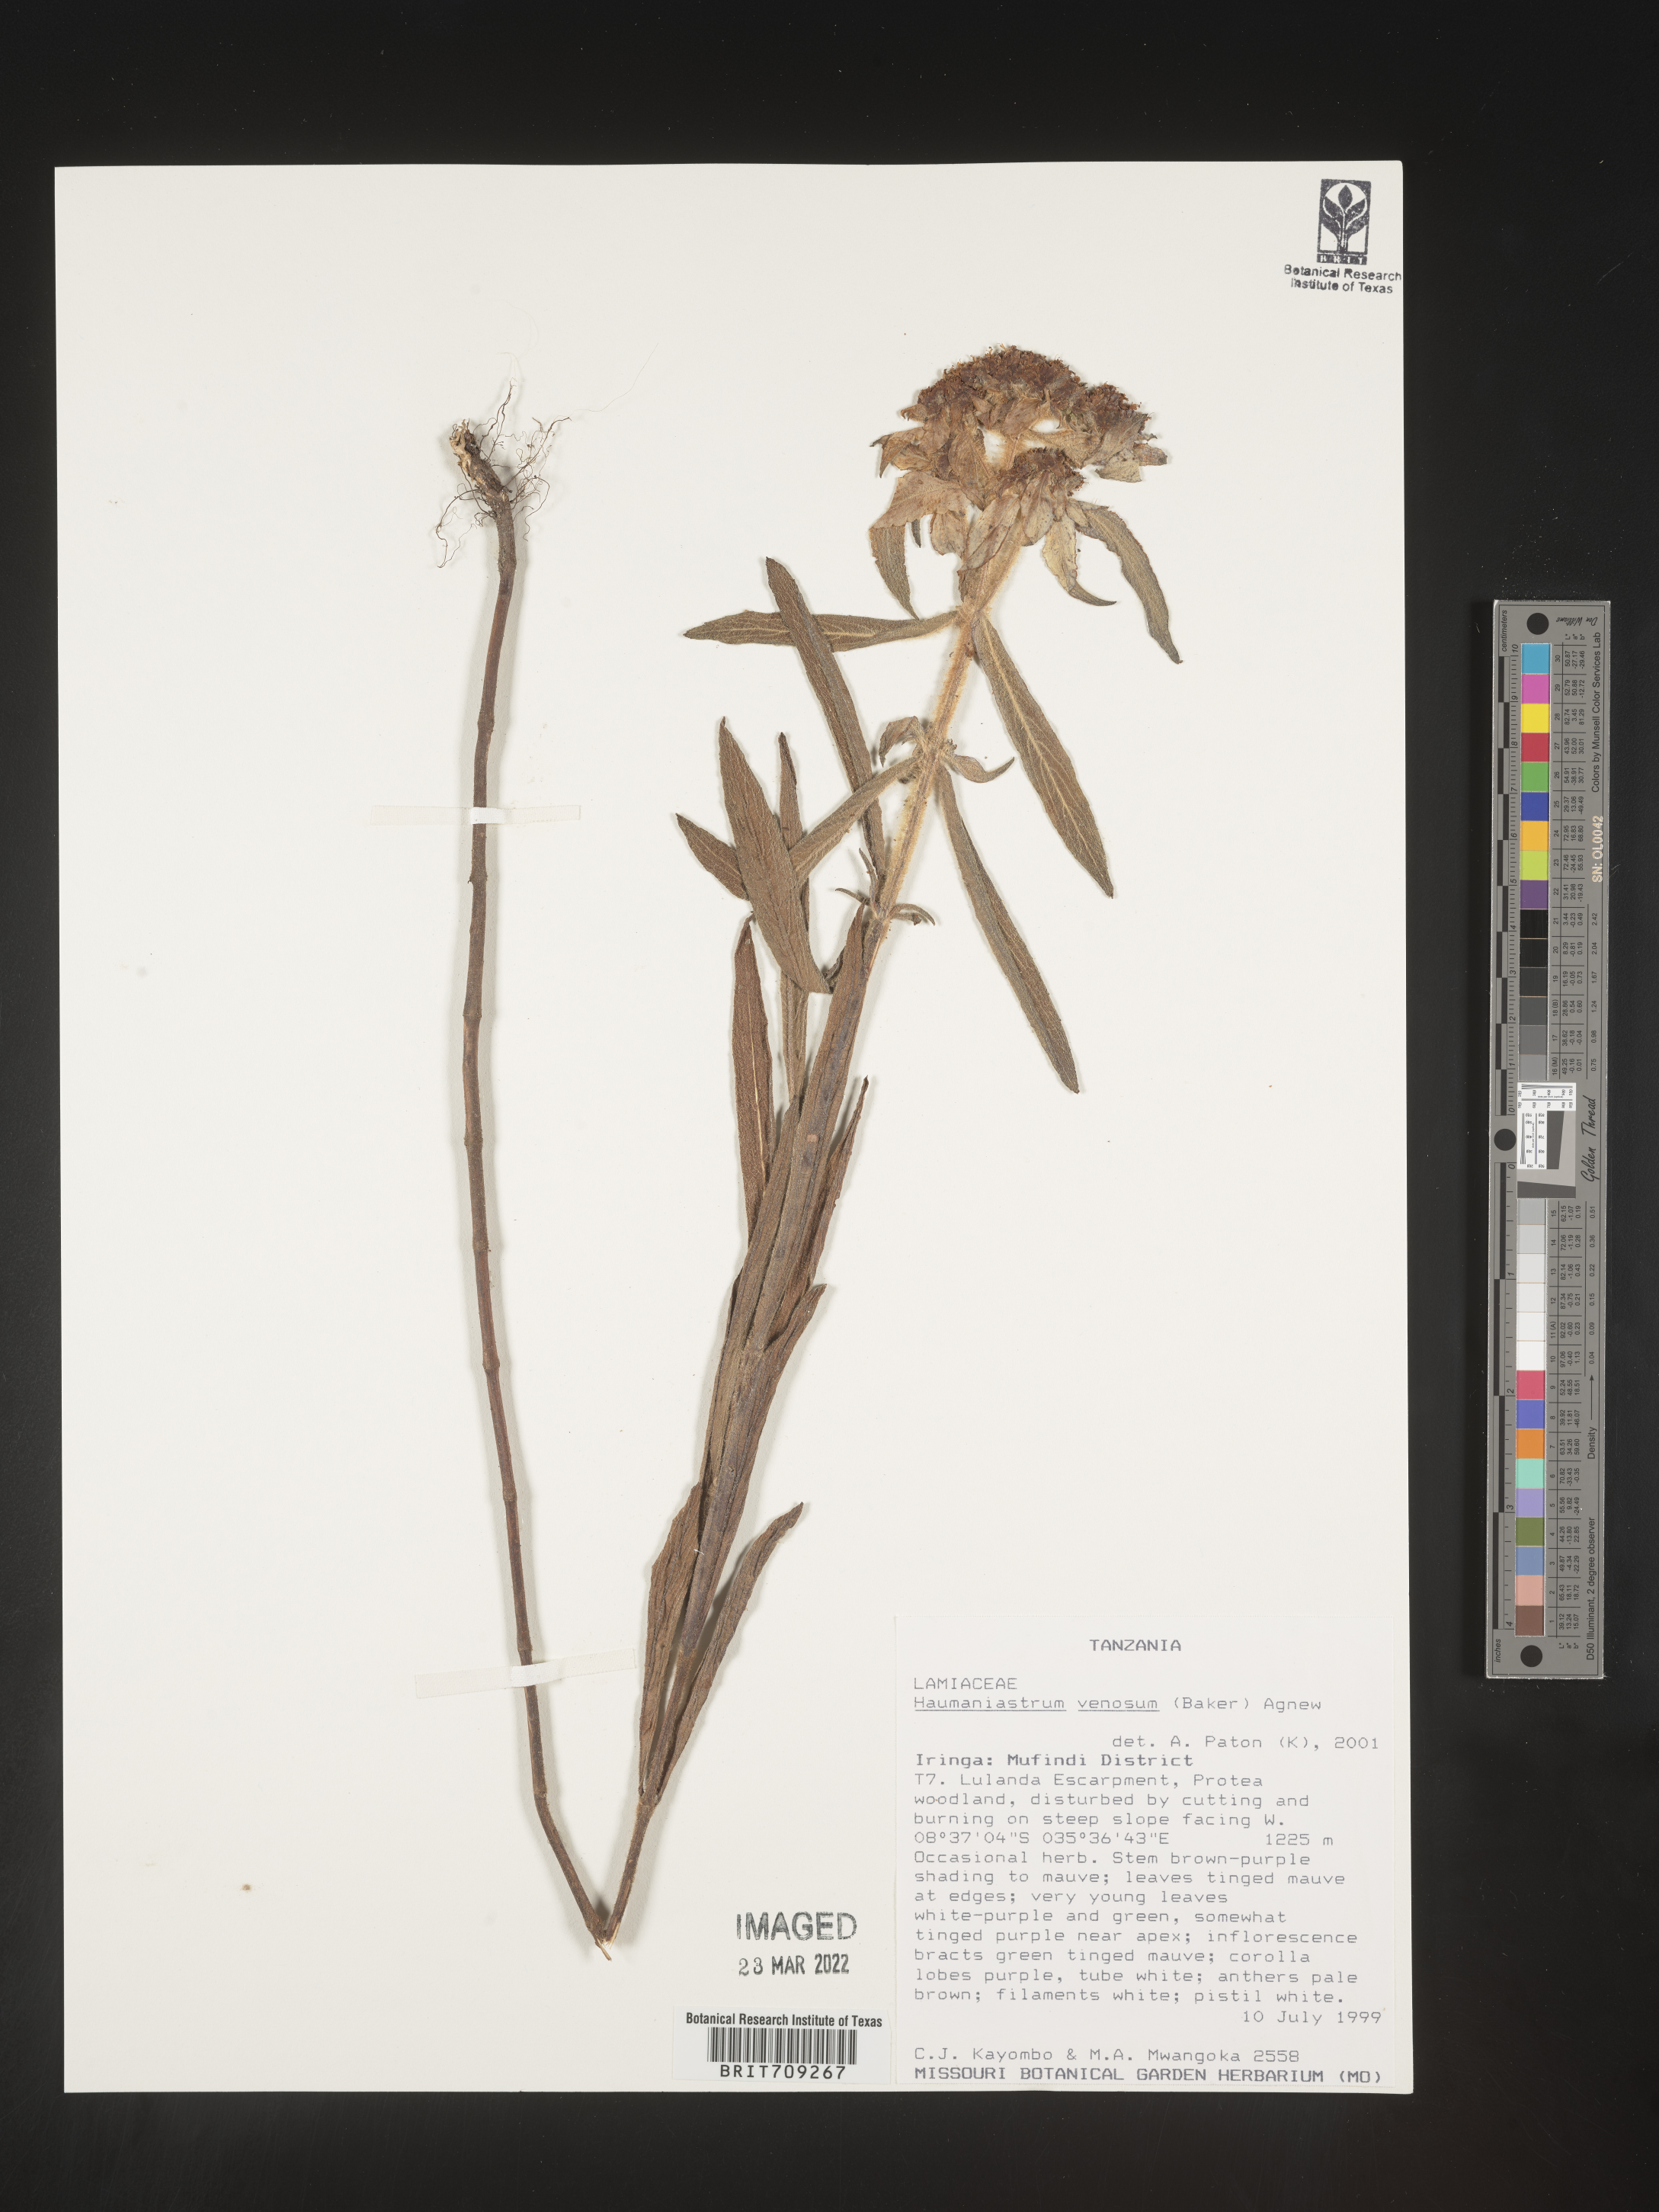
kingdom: Plantae
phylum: Tracheophyta
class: Magnoliopsida
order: Lamiales
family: Lamiaceae
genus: Haumaniastrum
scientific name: Haumaniastrum
